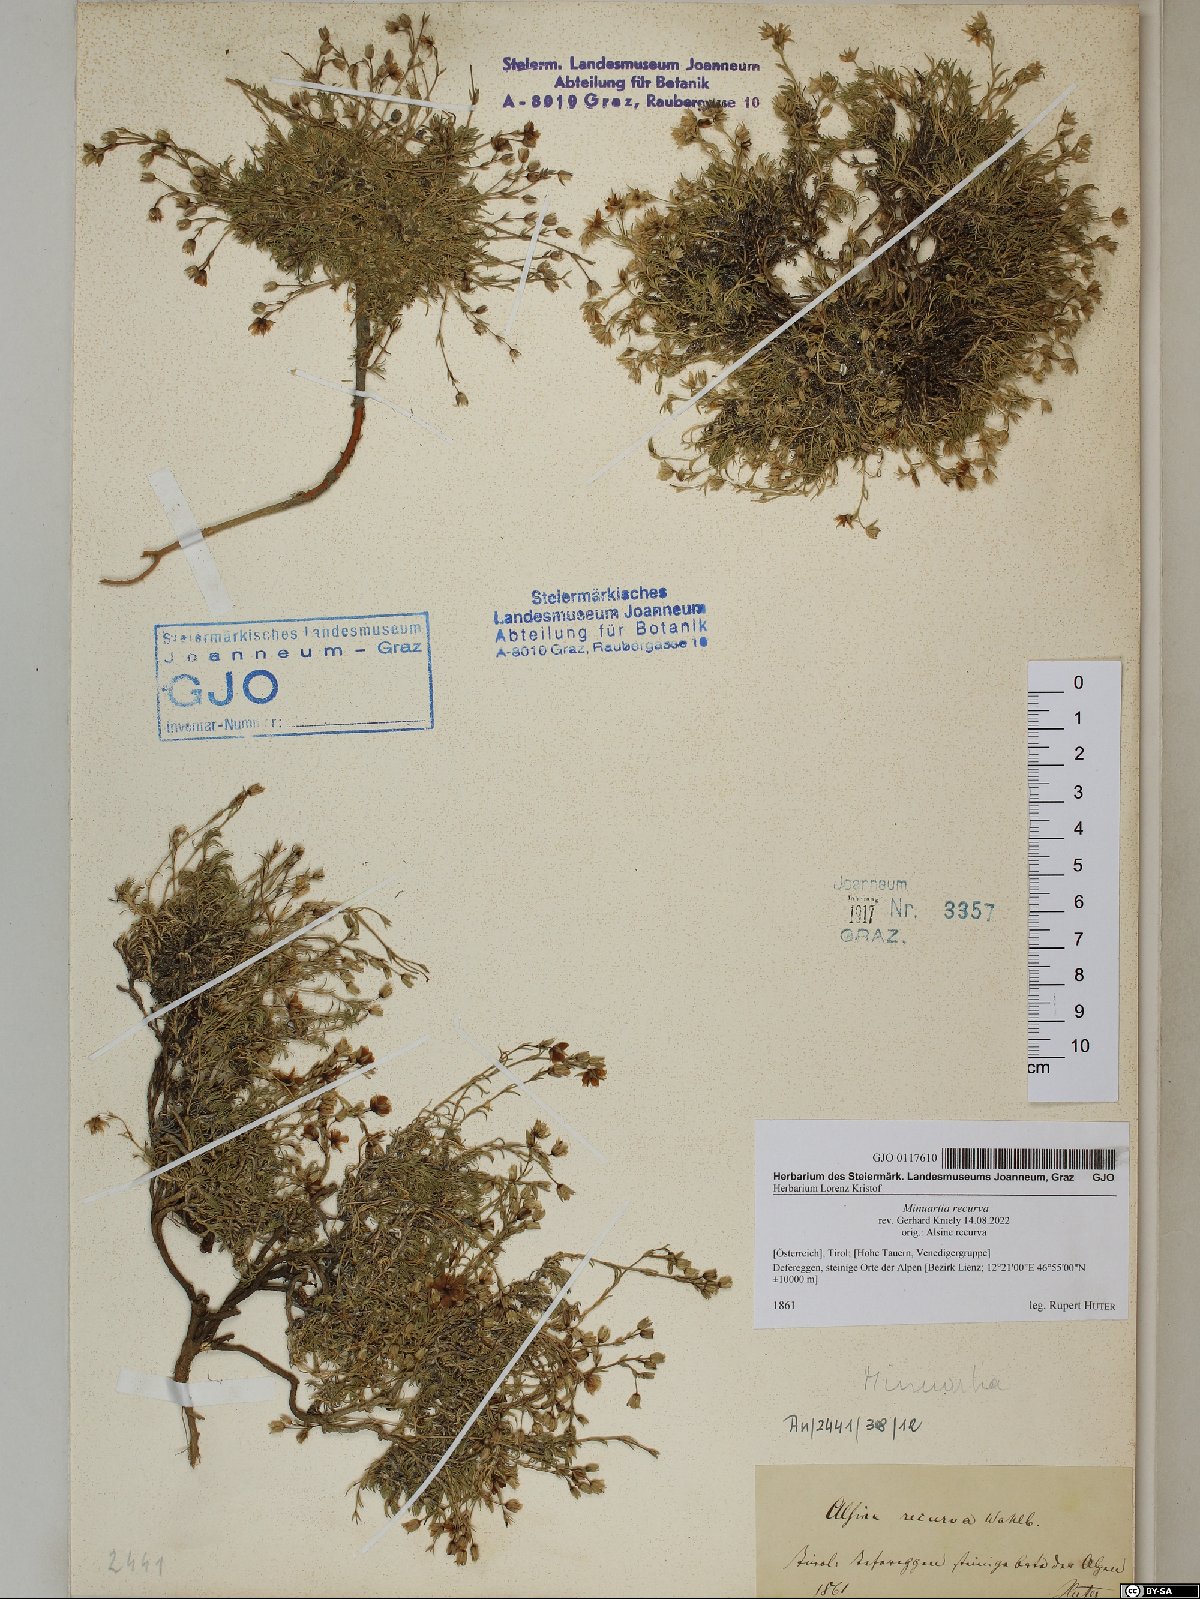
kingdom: Plantae
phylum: Tracheophyta
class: Magnoliopsida
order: Caryophyllales
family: Caryophyllaceae
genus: Minuartia
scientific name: Minuartia recurva
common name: Recurved sandwort
